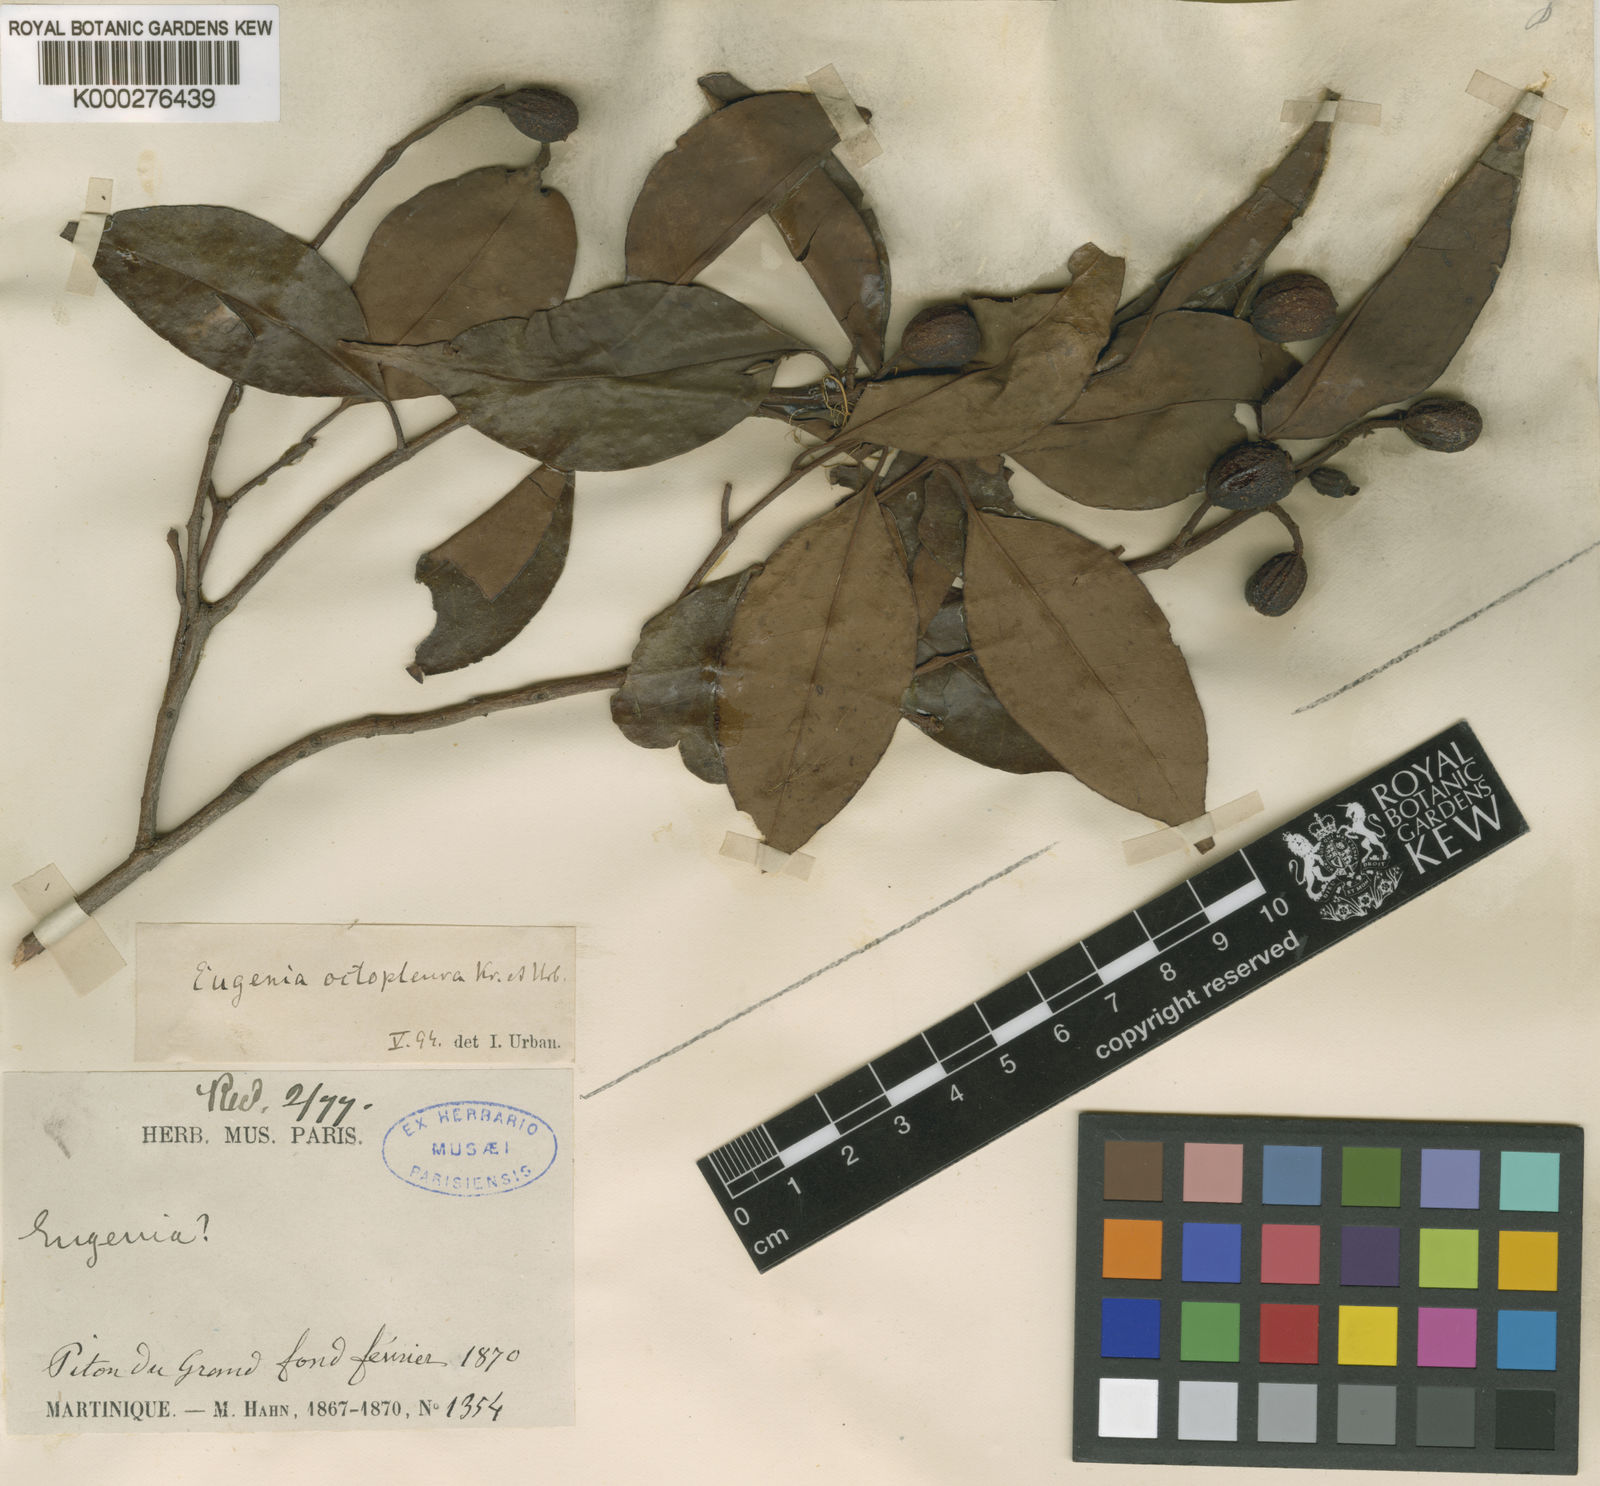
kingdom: Plantae
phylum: Tracheophyta
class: Magnoliopsida
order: Myrtales
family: Myrtaceae
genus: Eugenia
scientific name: Eugenia octopleura
